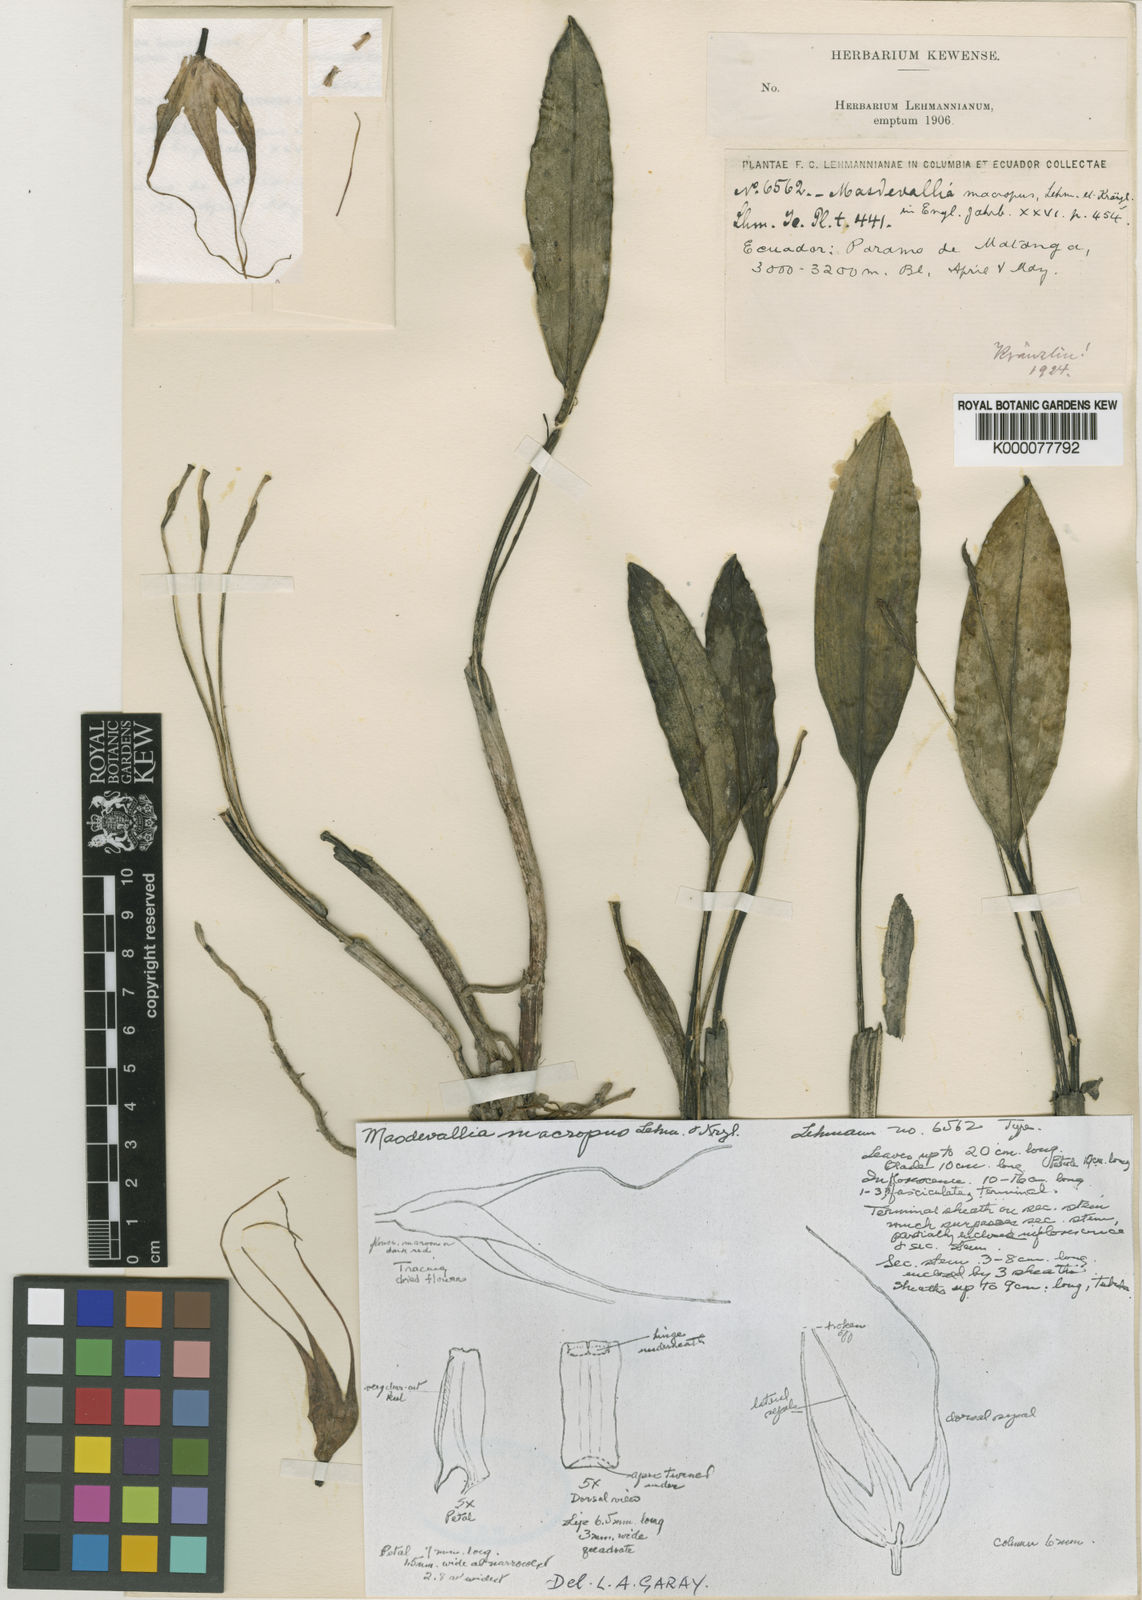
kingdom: Plantae
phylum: Tracheophyta
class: Liliopsida
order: Asparagales
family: Orchidaceae
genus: Masdevallia
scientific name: Masdevallia macropus
